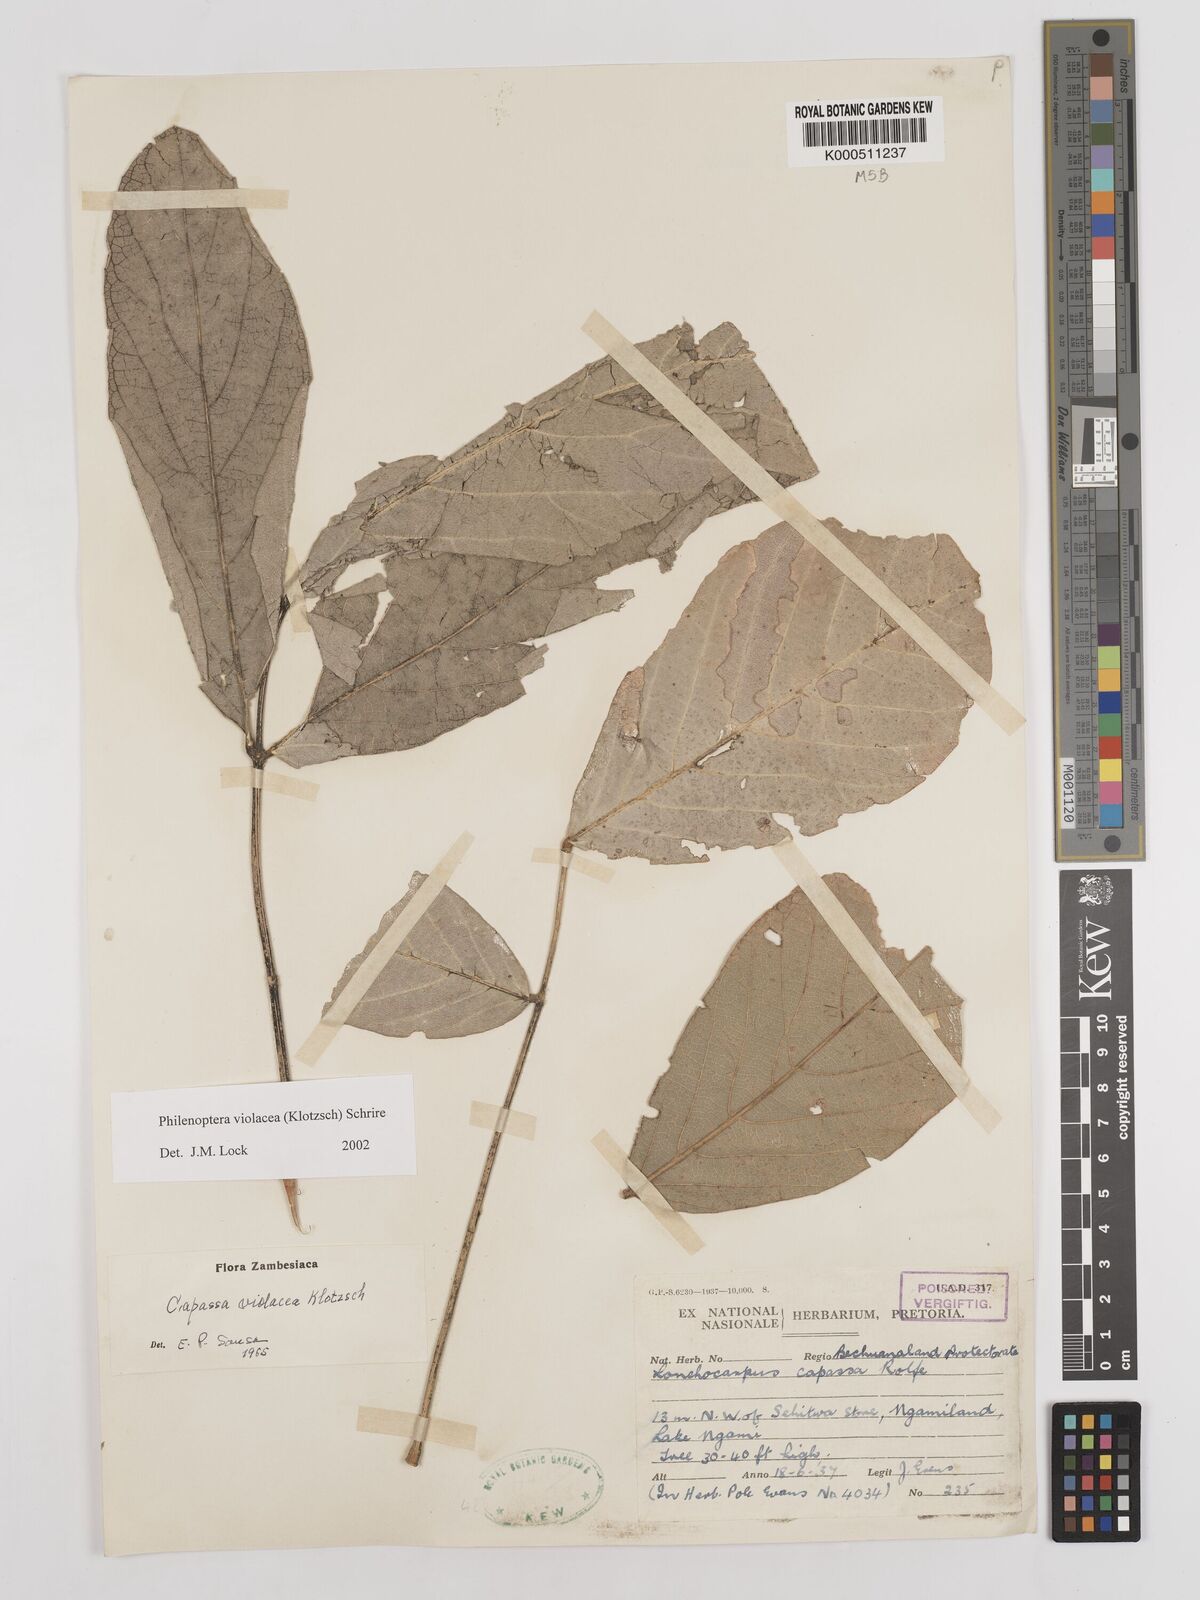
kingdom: Plantae
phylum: Tracheophyta
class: Magnoliopsida
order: Fabales
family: Fabaceae
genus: Philenoptera
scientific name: Philenoptera violacea
